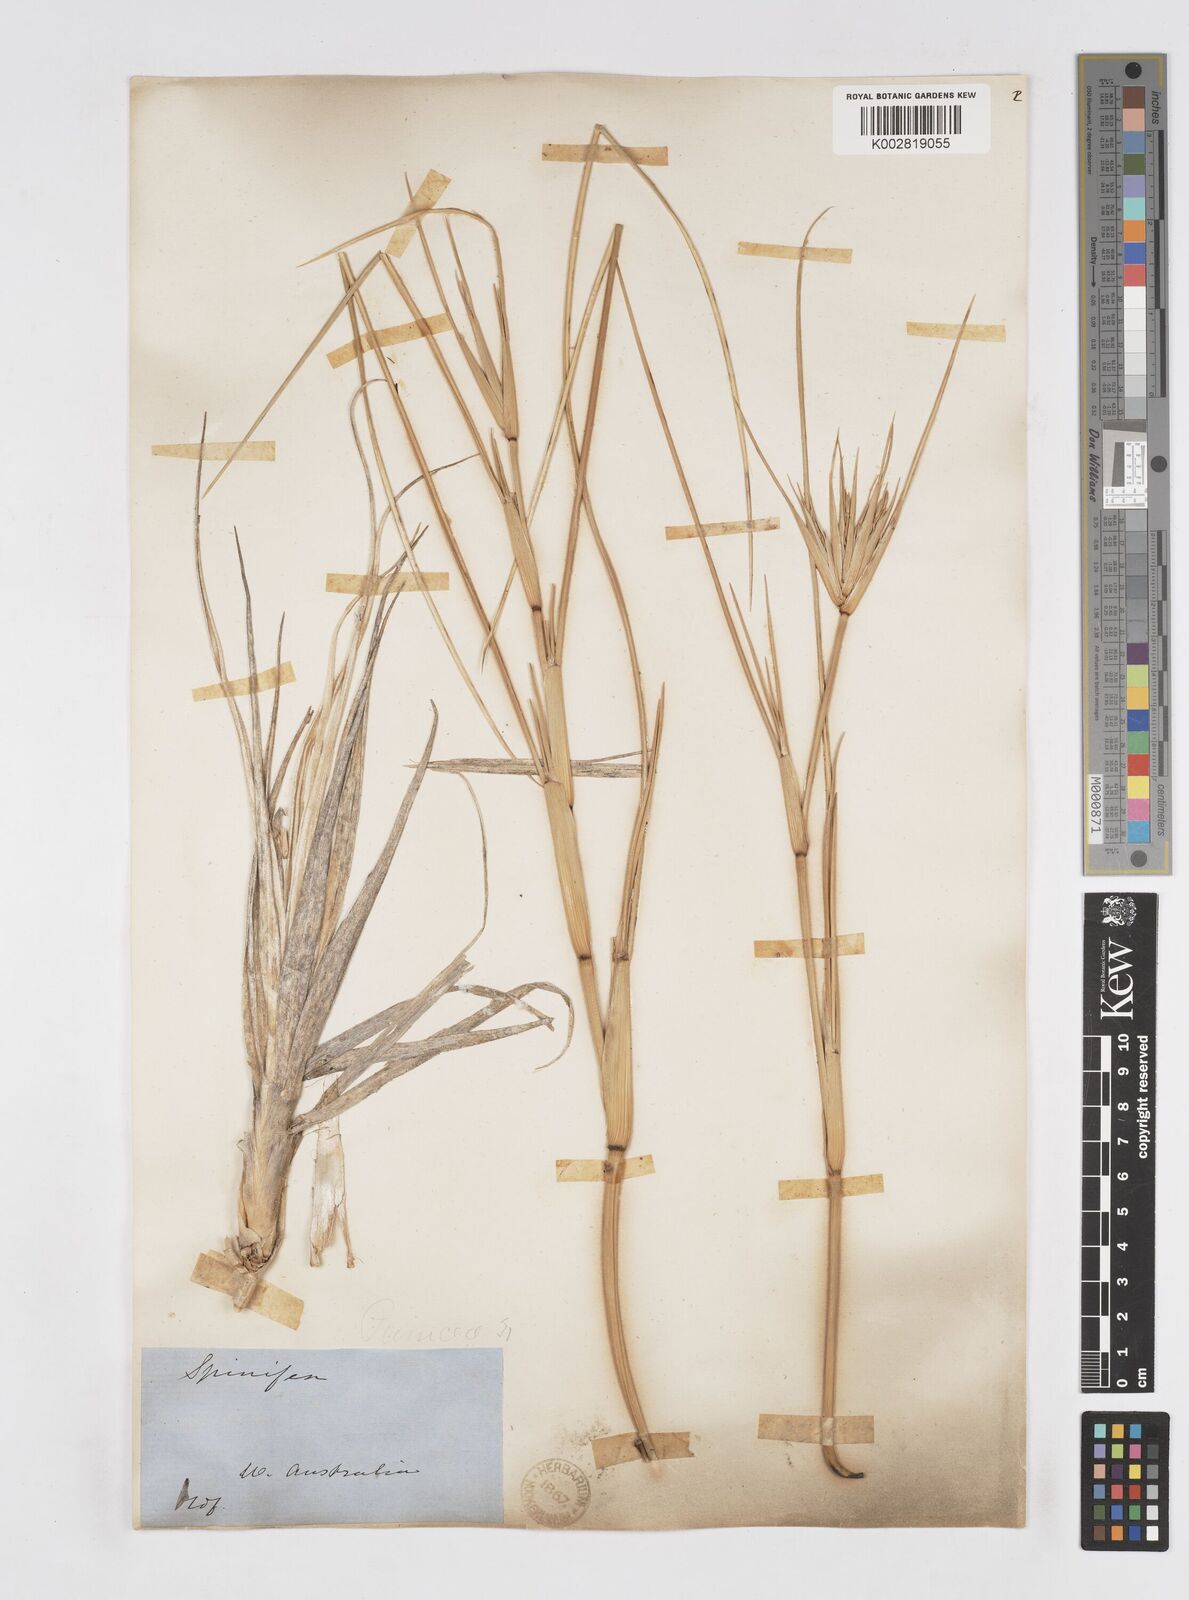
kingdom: Plantae
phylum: Tracheophyta
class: Liliopsida
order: Poales
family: Poaceae
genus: Spinifex
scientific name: Spinifex hirsutus
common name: Hairy spinifex
